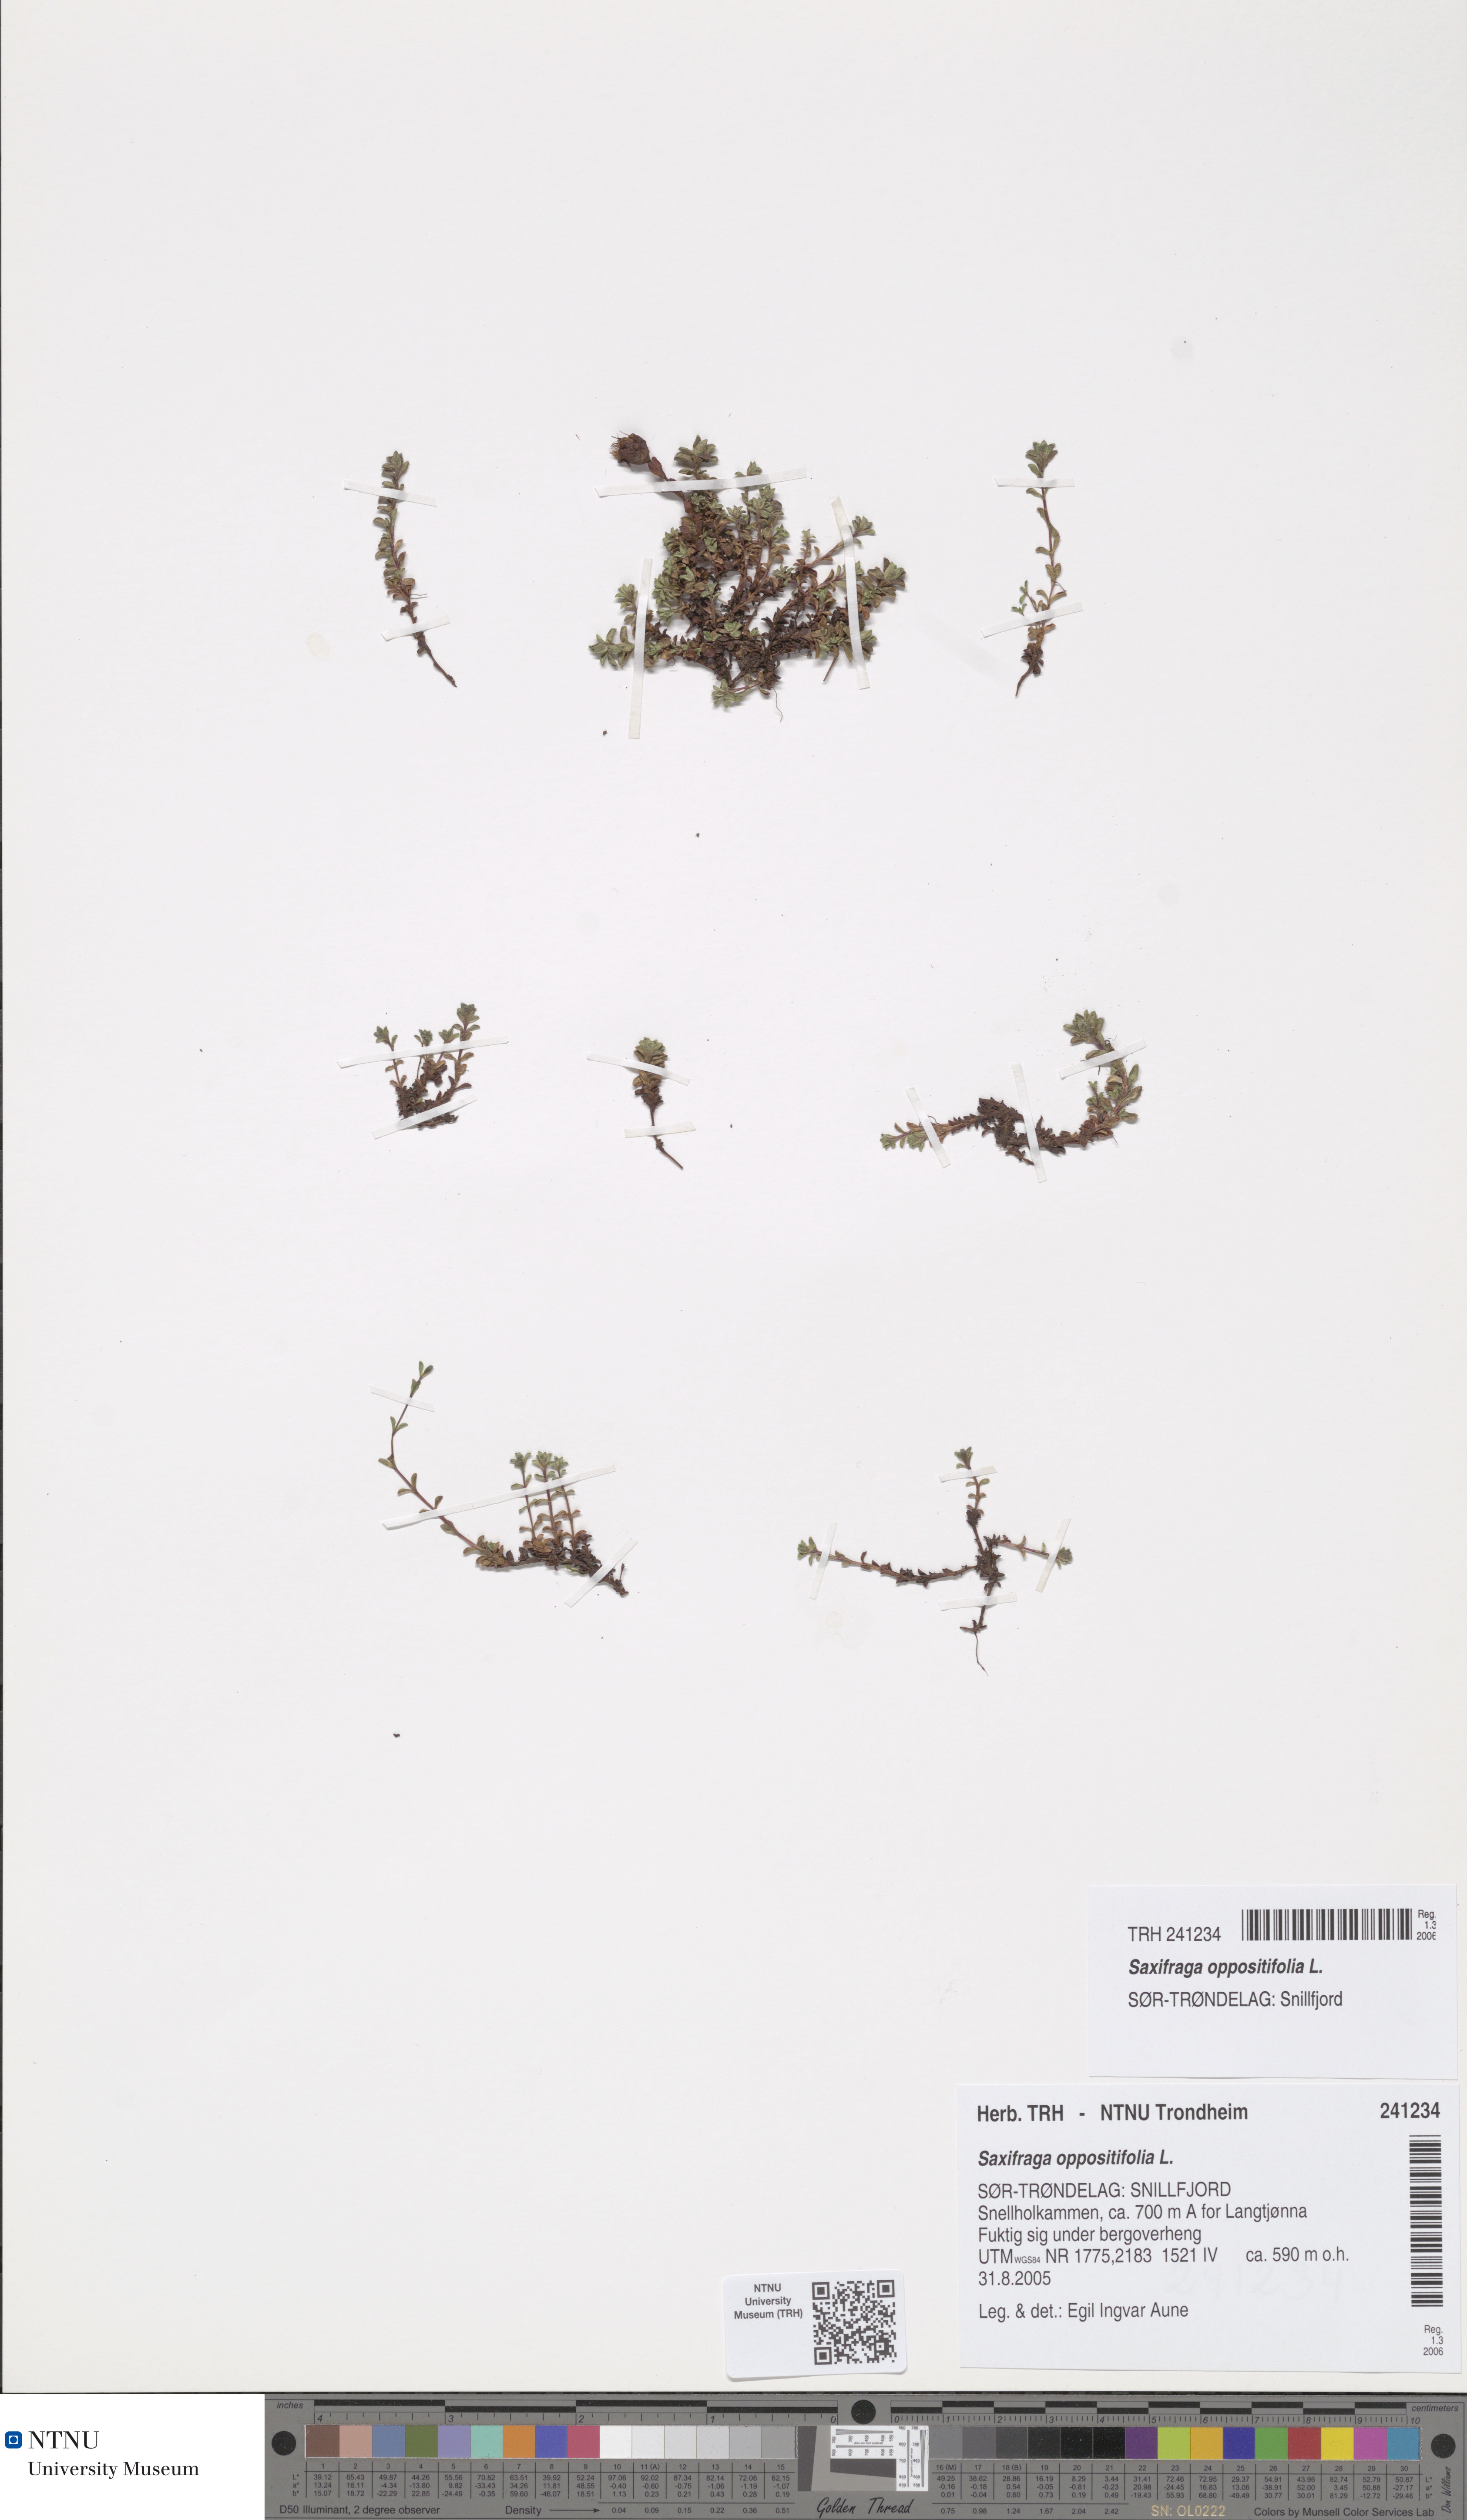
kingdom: Plantae
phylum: Tracheophyta
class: Magnoliopsida
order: Saxifragales
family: Saxifragaceae
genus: Saxifraga
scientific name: Saxifraga oppositifolia
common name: Purple saxifrage
